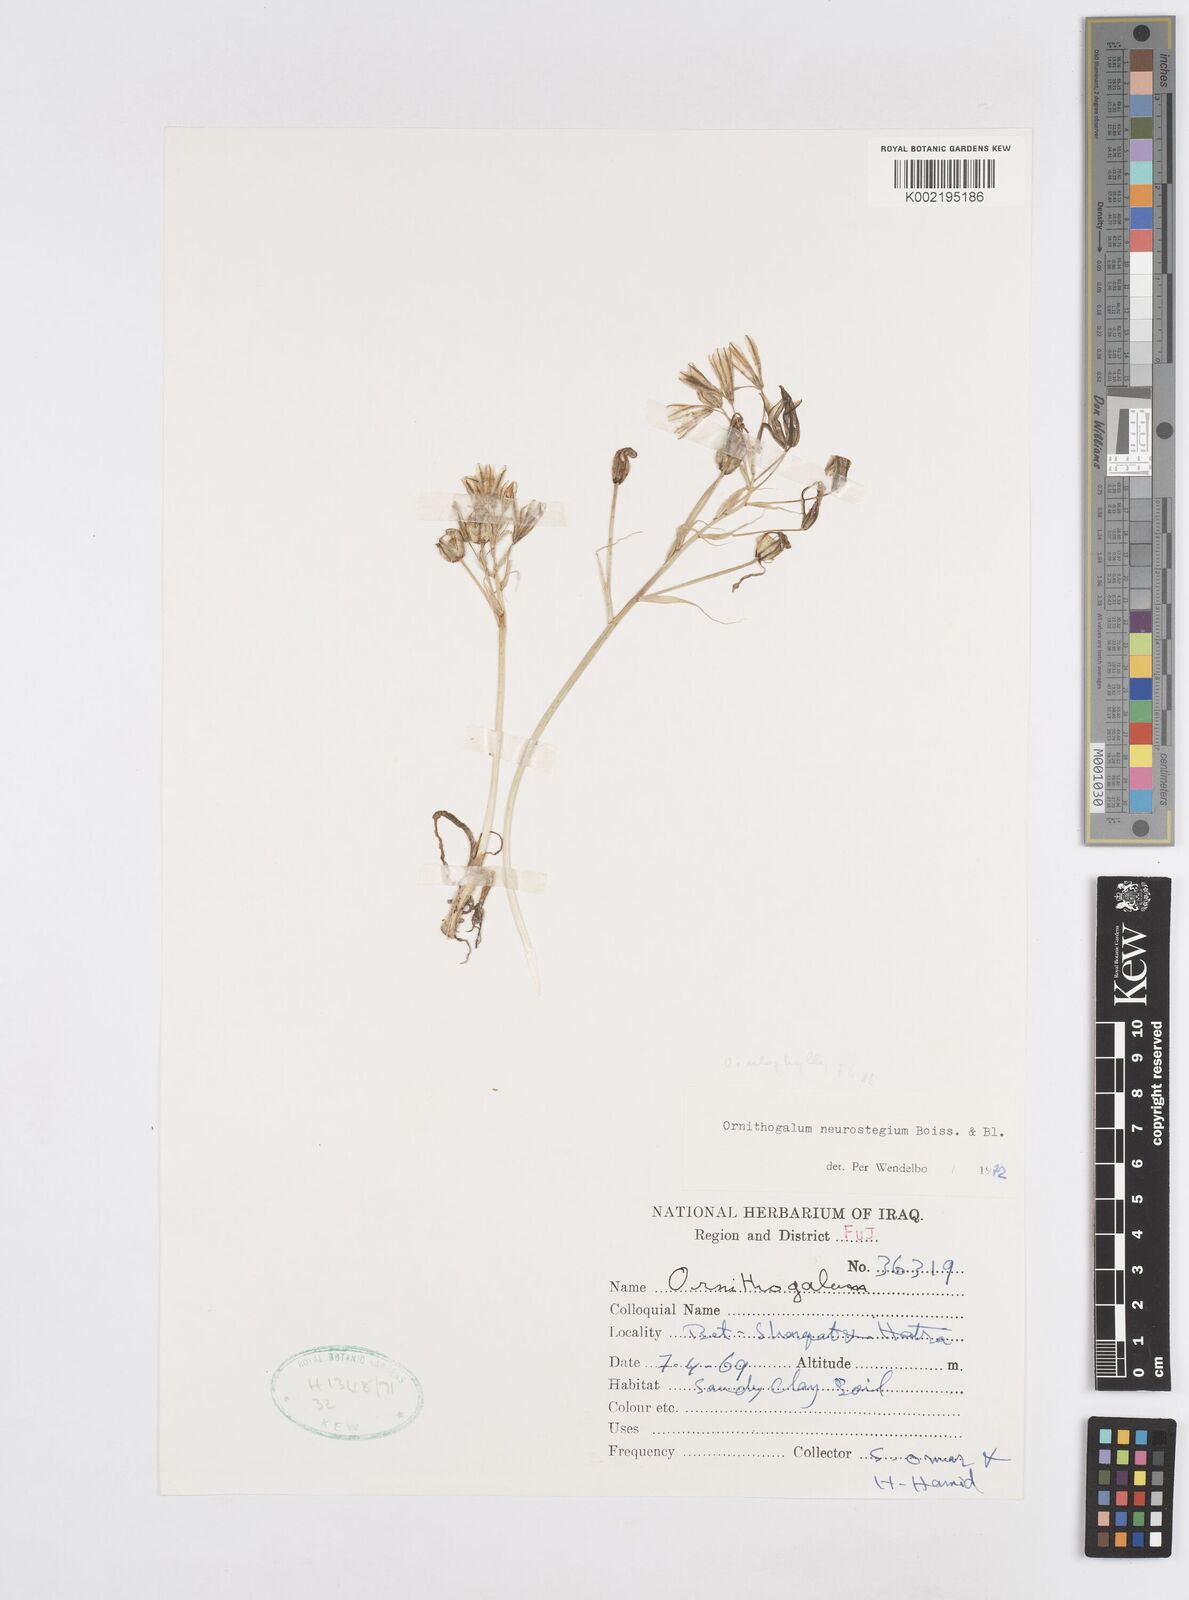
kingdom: Plantae
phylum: Tracheophyta
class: Liliopsida
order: Asparagales
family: Asparagaceae
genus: Ornithogalum
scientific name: Ornithogalum neurostegium
